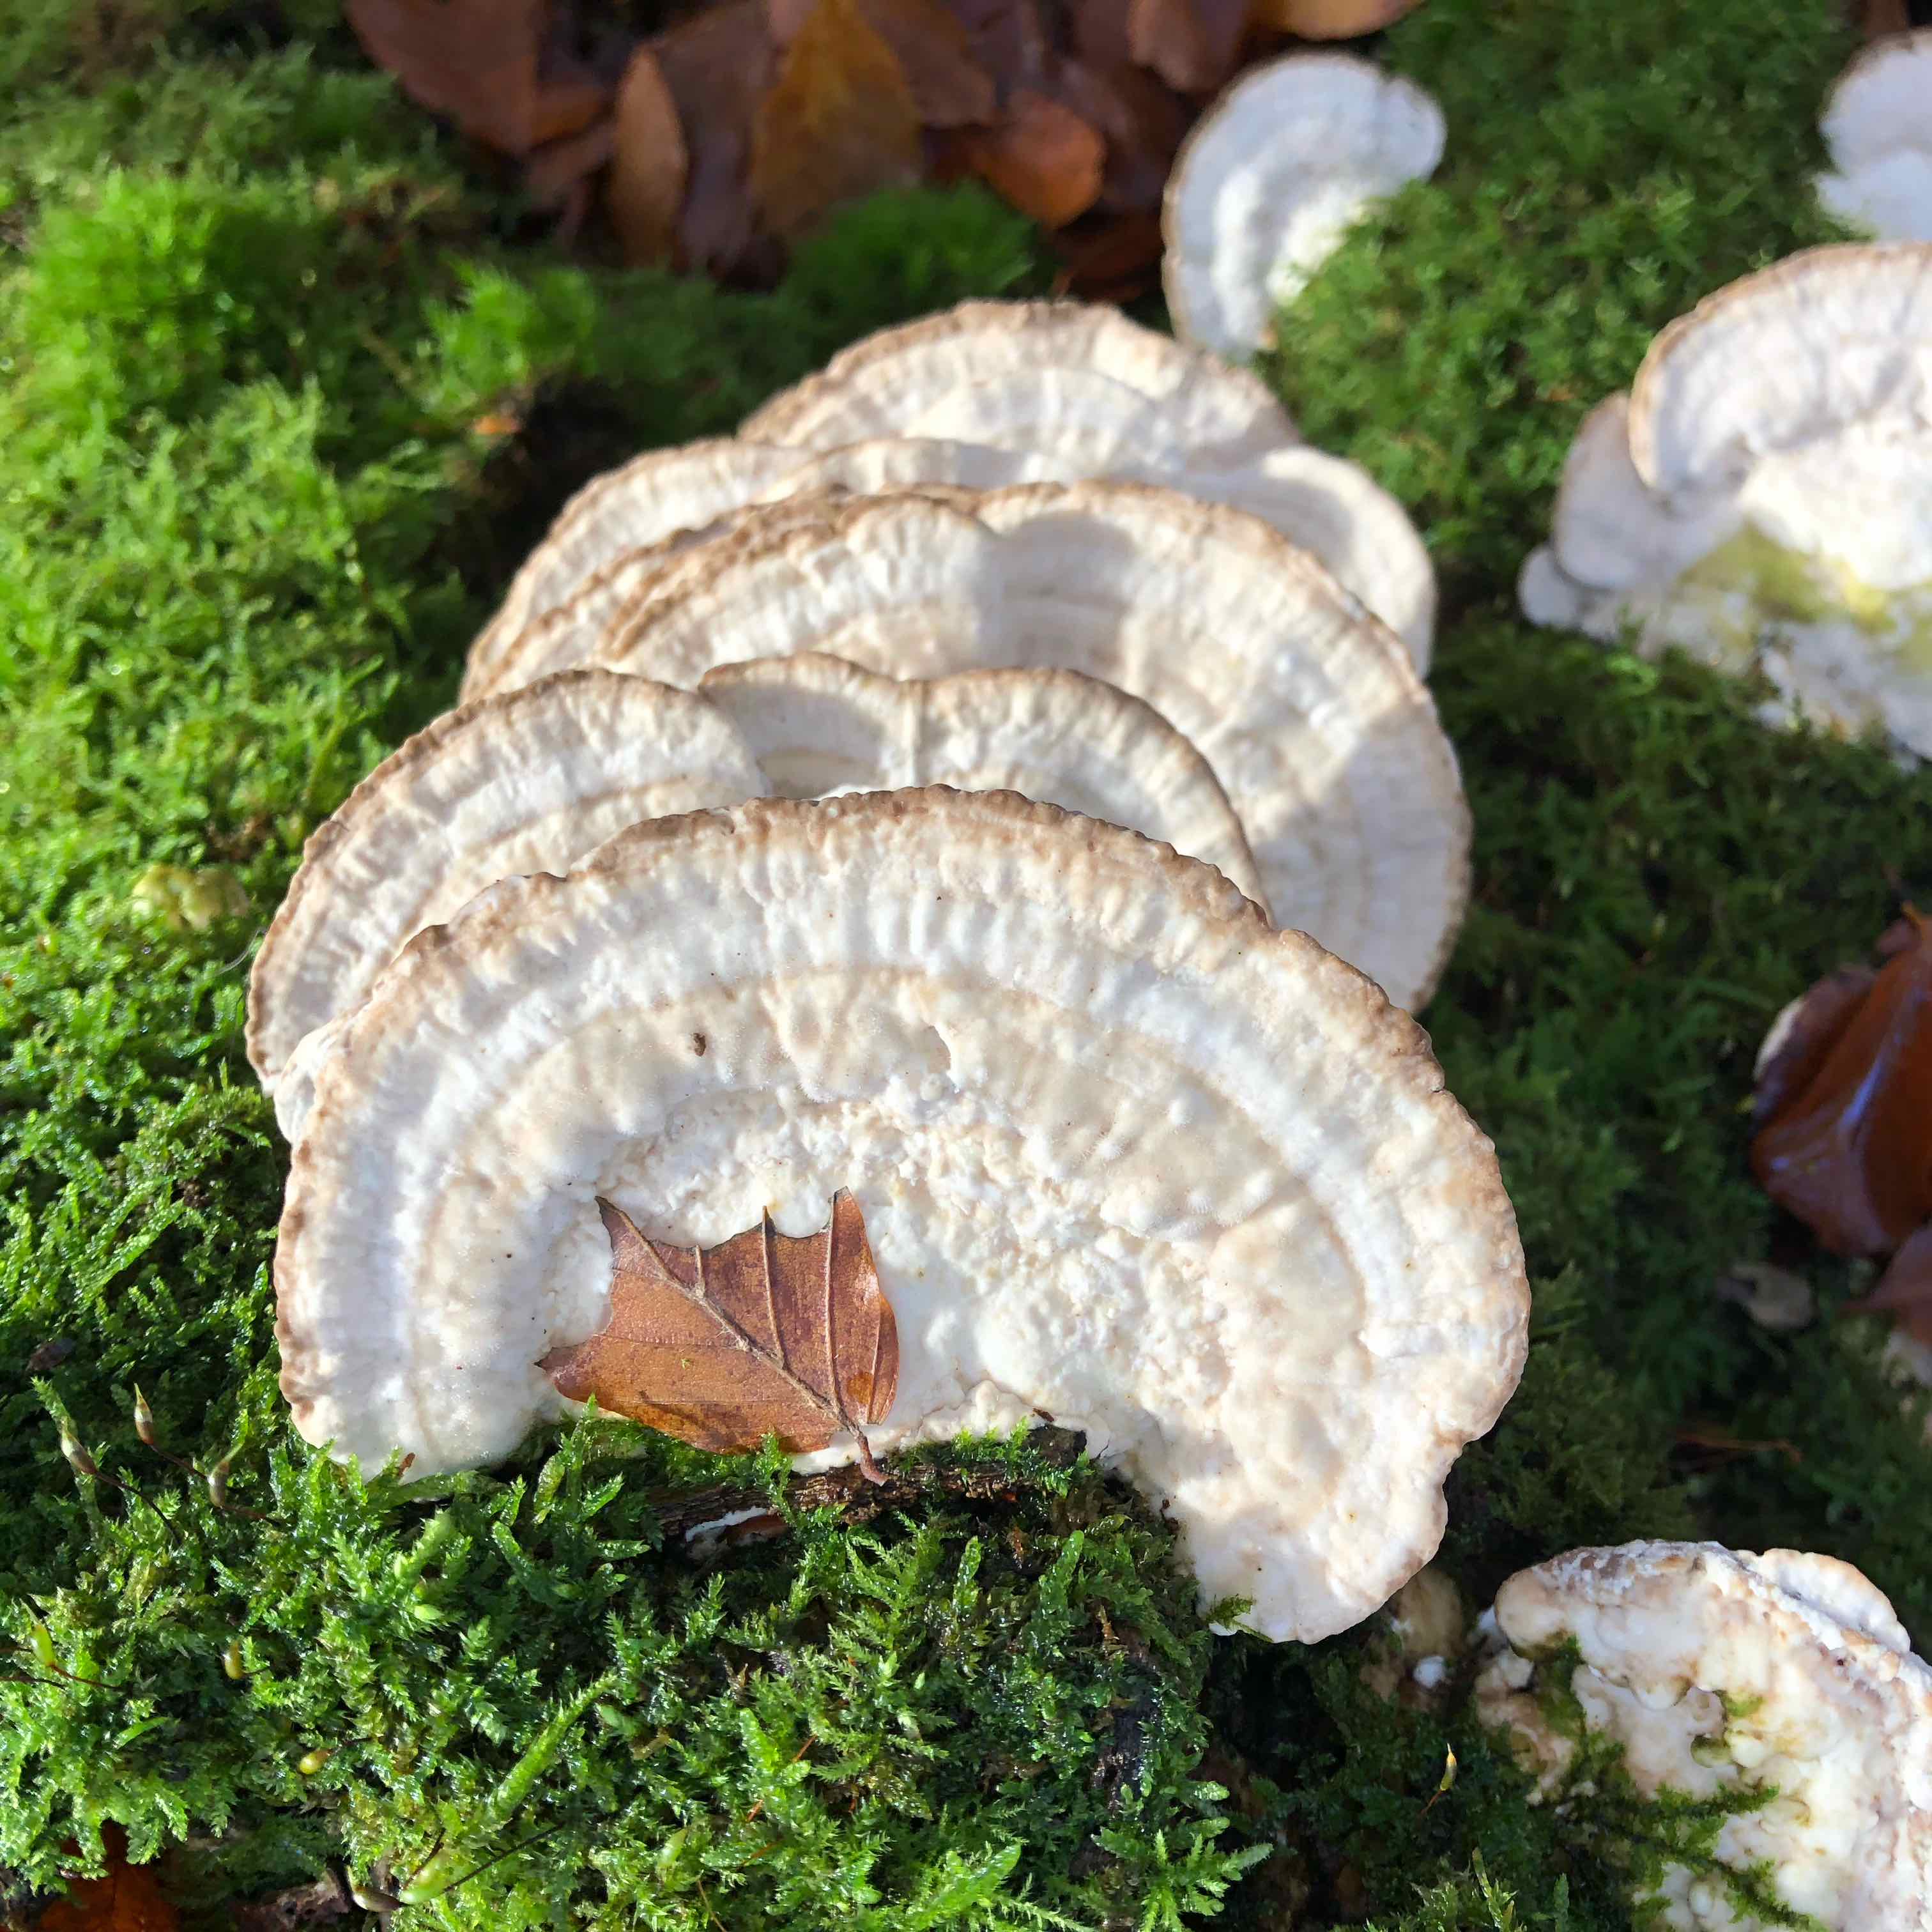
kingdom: Fungi
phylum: Basidiomycota
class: Agaricomycetes
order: Polyporales
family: Polyporaceae
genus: Trametes
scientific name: Trametes gibbosa
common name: puklet læderporesvamp
